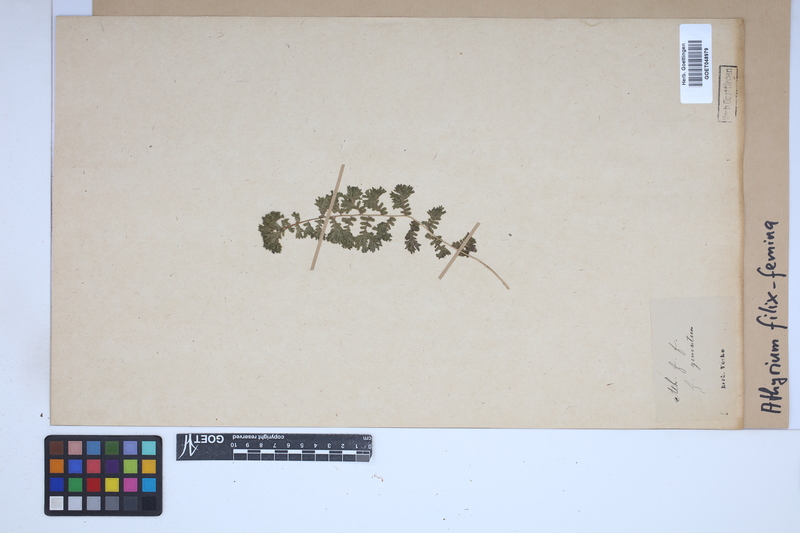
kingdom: Plantae
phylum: Tracheophyta
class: Polypodiopsida
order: Polypodiales
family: Athyriaceae
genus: Athyrium
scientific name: Athyrium filix-femina
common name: Lady fern
